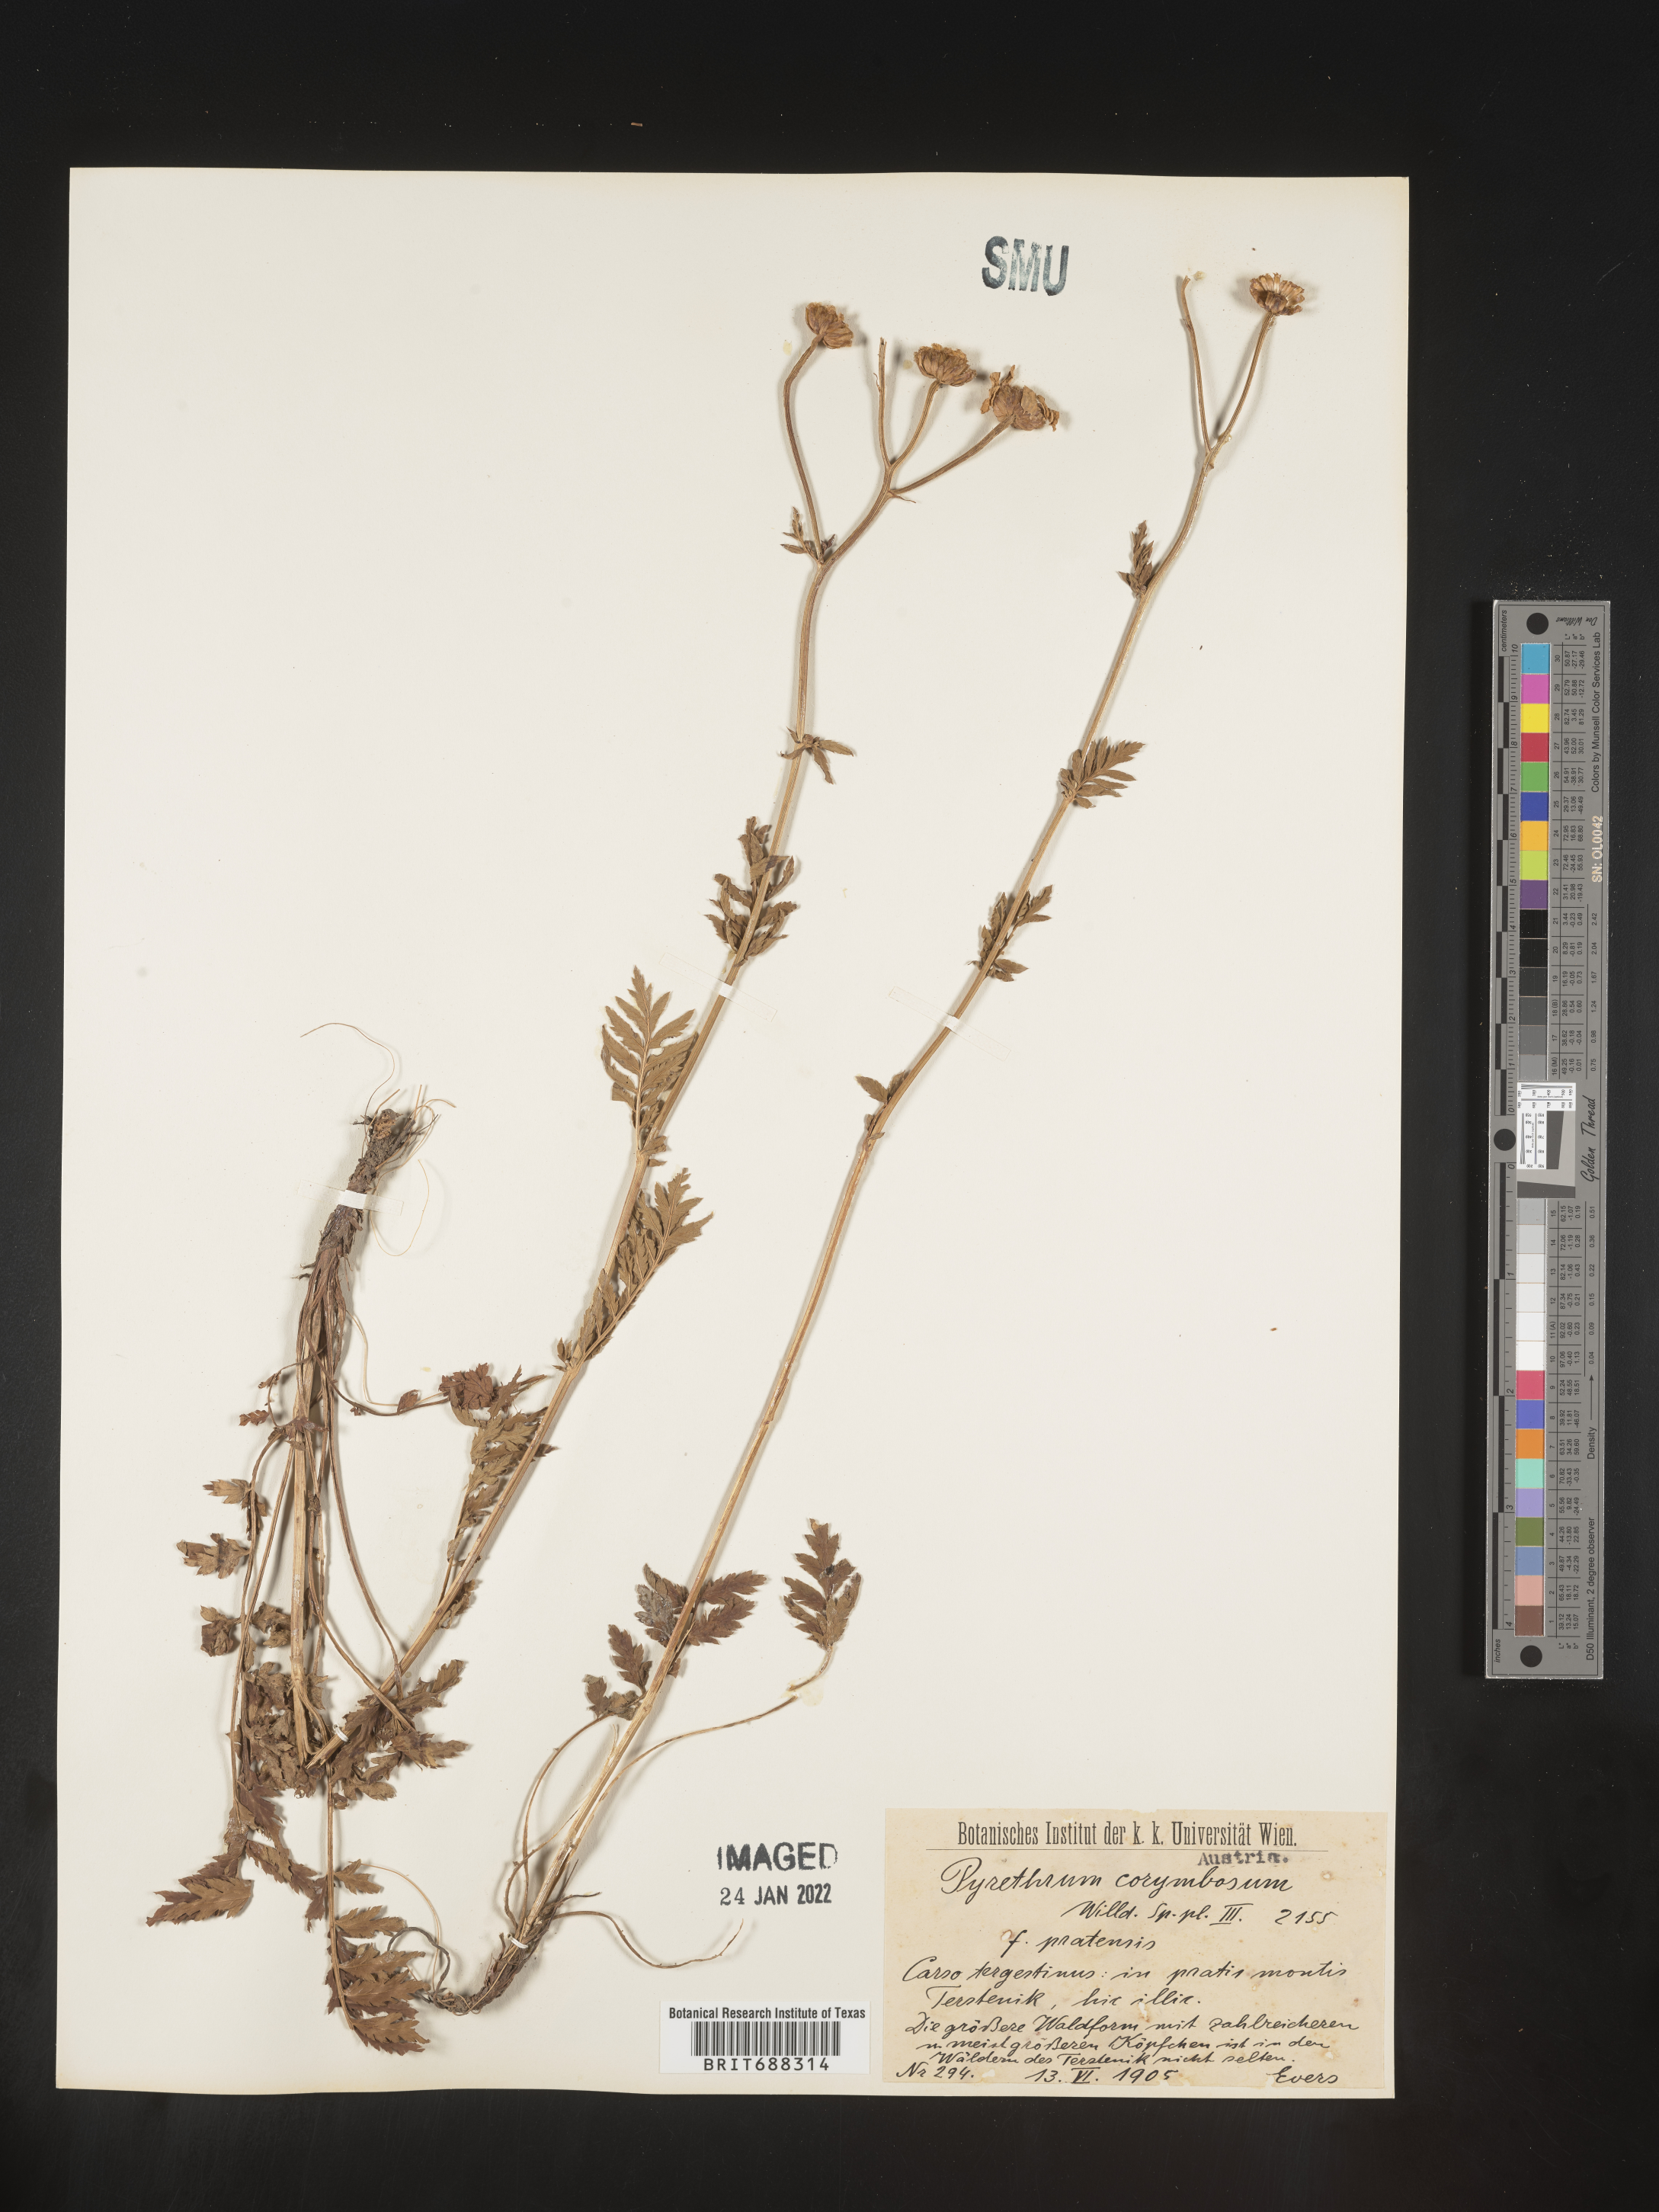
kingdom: Plantae
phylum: Tracheophyta
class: Magnoliopsida
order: Asterales
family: Asteraceae
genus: Chrysanthemum
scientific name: Chrysanthemum
